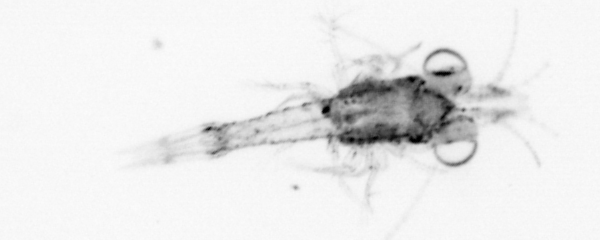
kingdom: Animalia
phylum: Arthropoda
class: Malacostraca
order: Decapoda
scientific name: Decapoda
